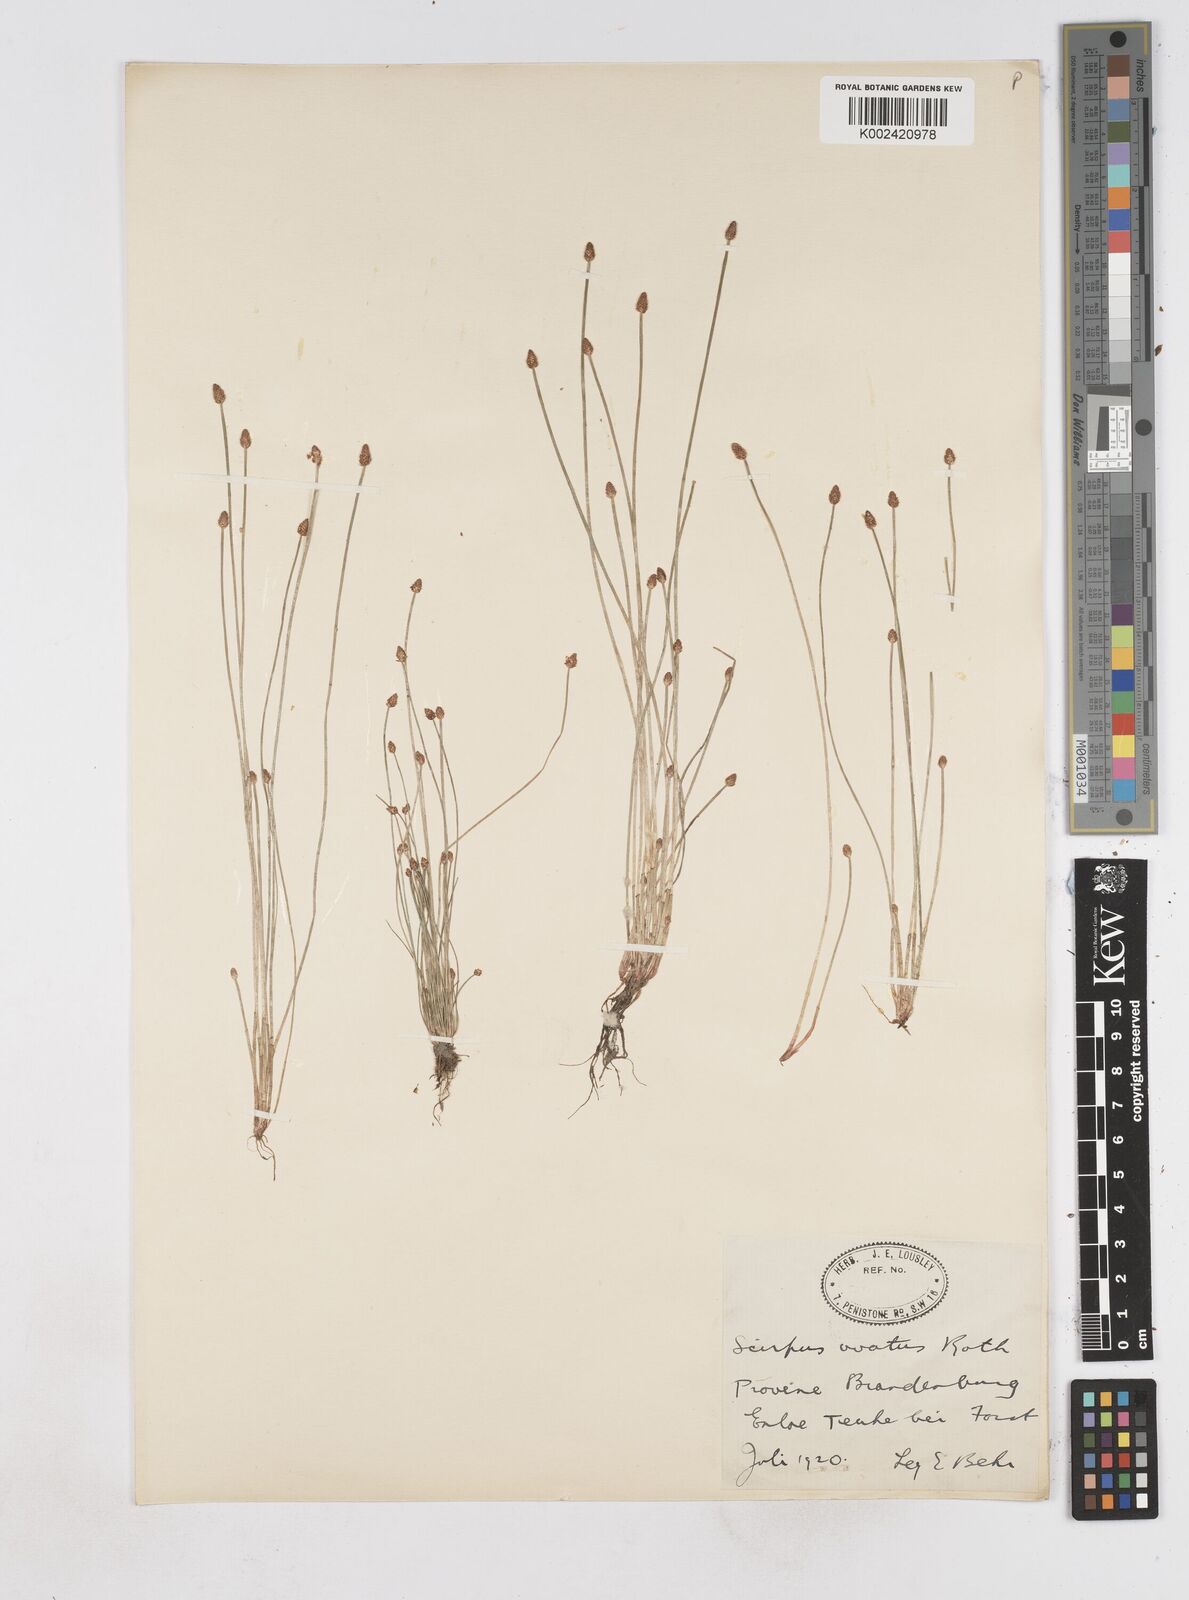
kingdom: Plantae
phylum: Tracheophyta
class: Liliopsida
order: Poales
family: Cyperaceae
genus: Eleocharis
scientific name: Eleocharis ovata
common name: Oval spike-rush
